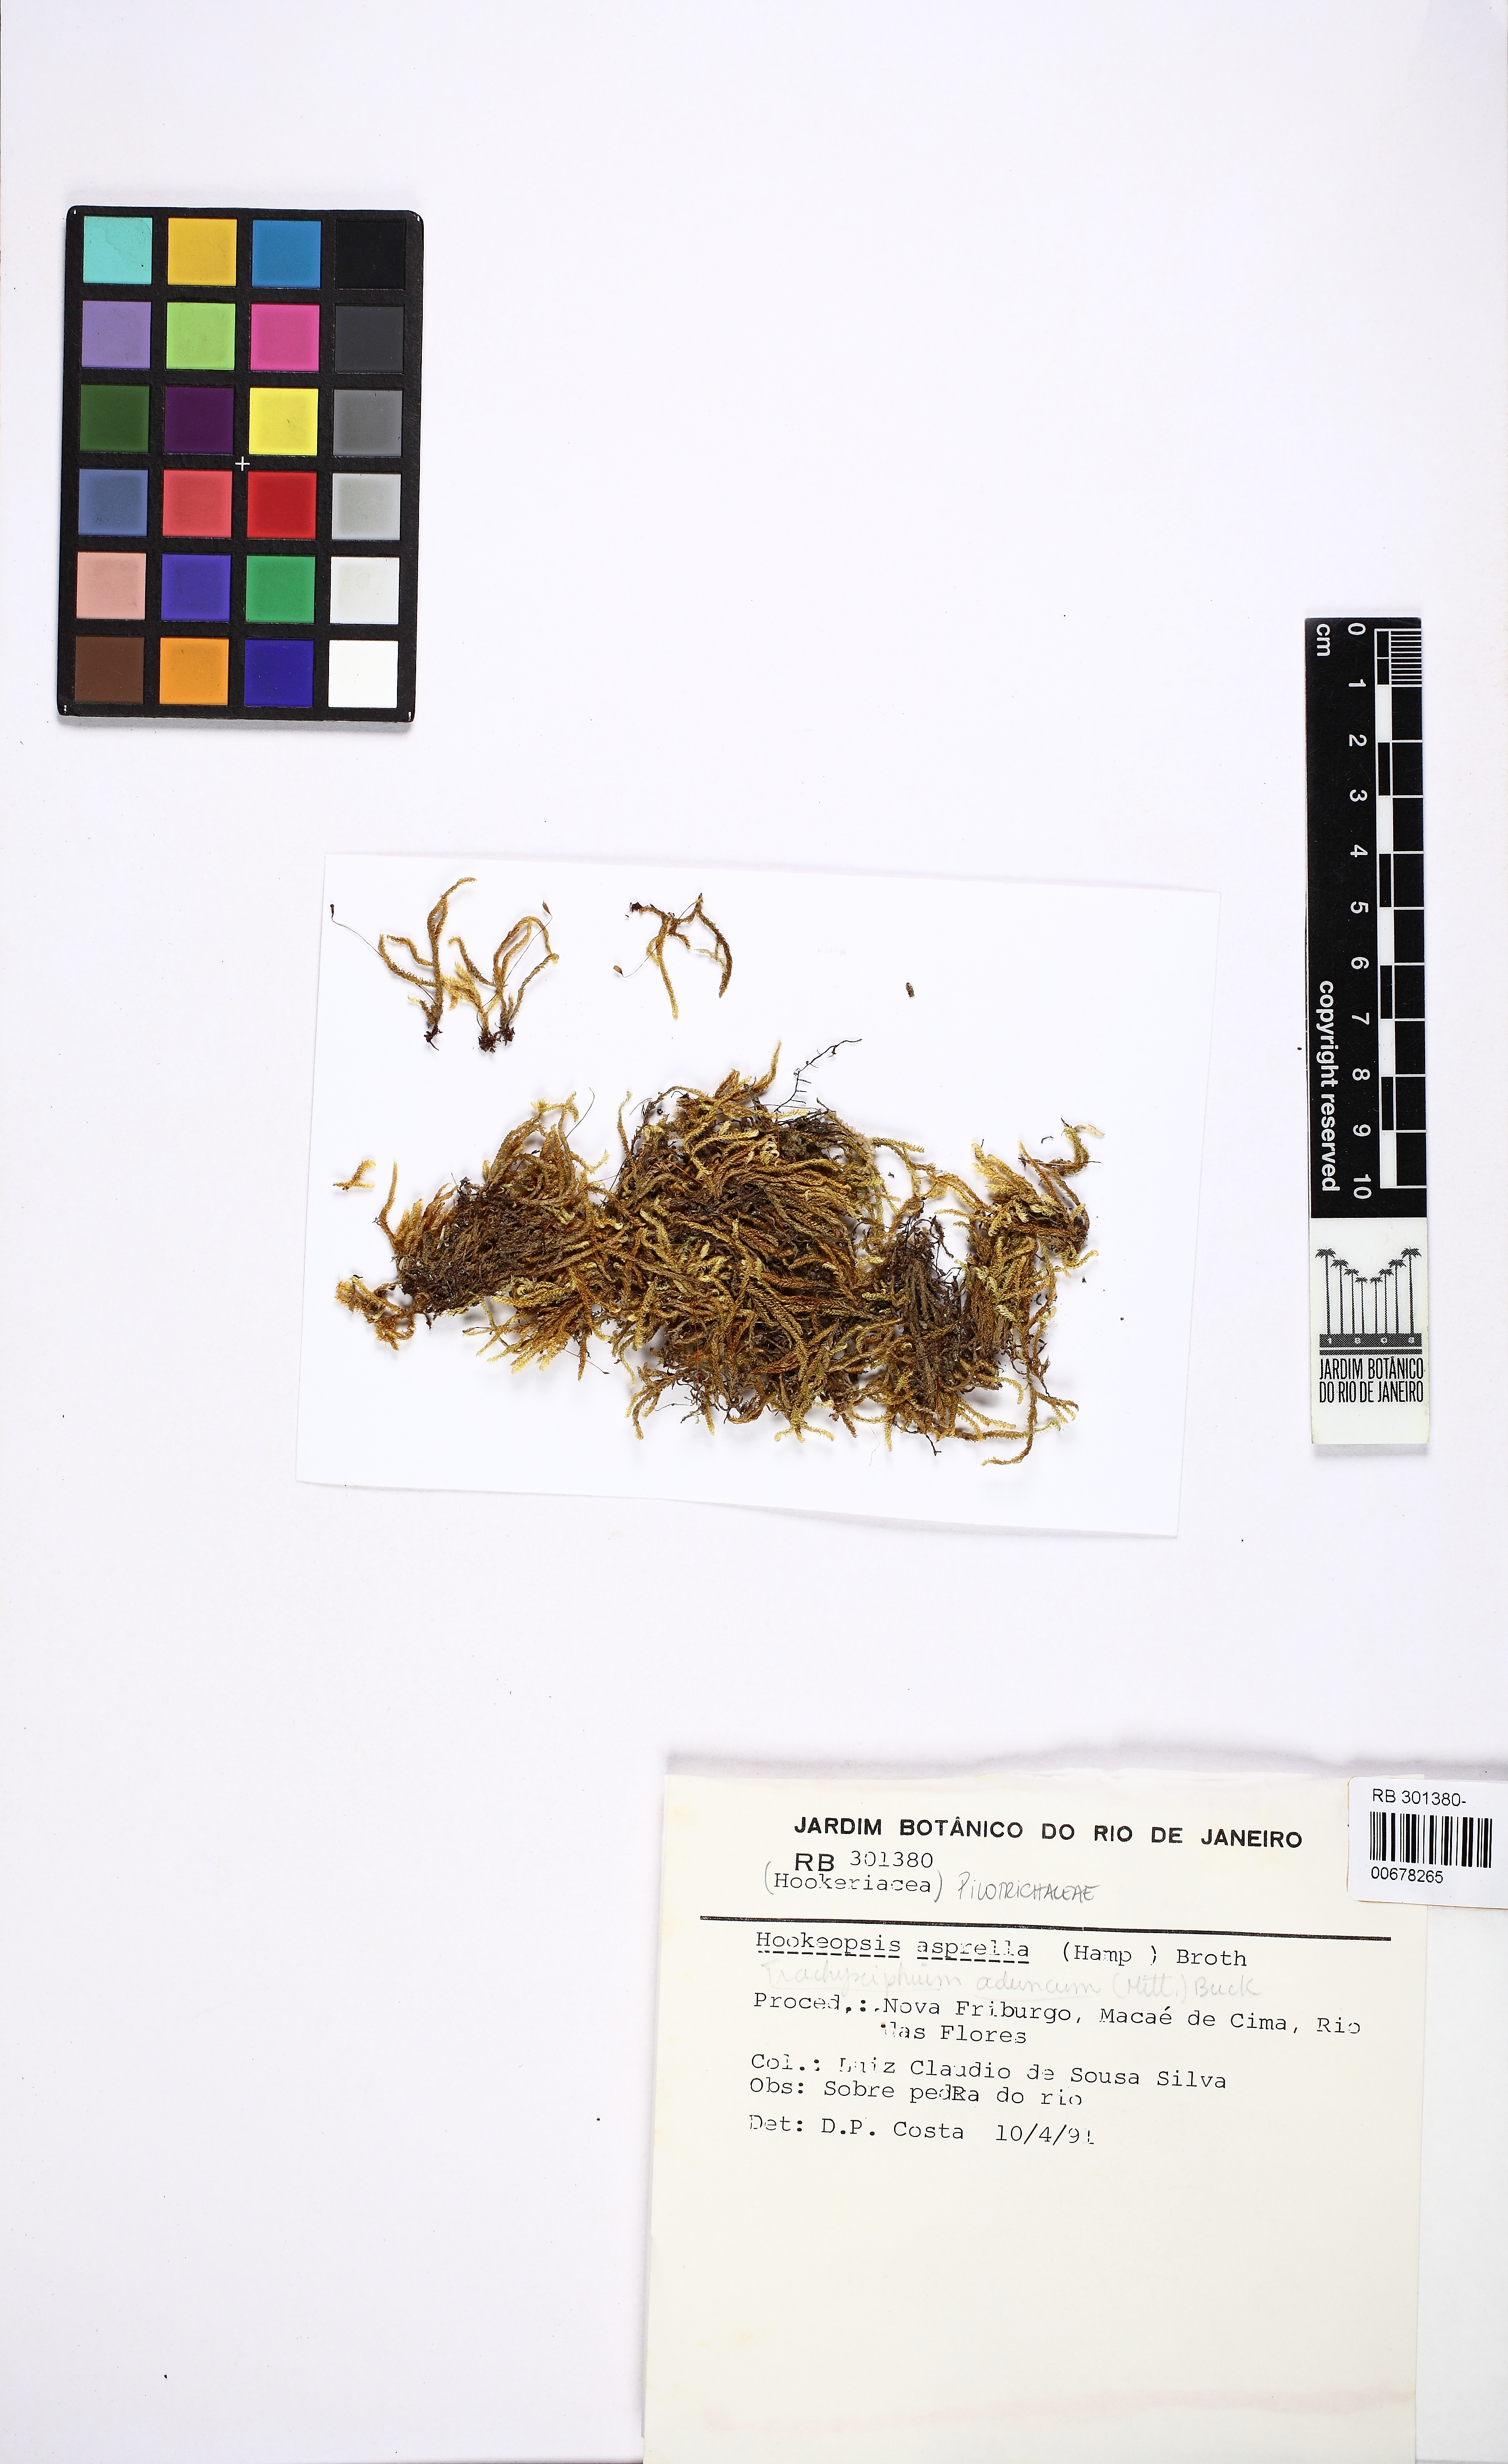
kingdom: Plantae
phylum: Bryophyta
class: Bryopsida
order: Hookeriales
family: Pilotrichaceae
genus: Trachyxiphium
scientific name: Trachyxiphium subfalcatum
